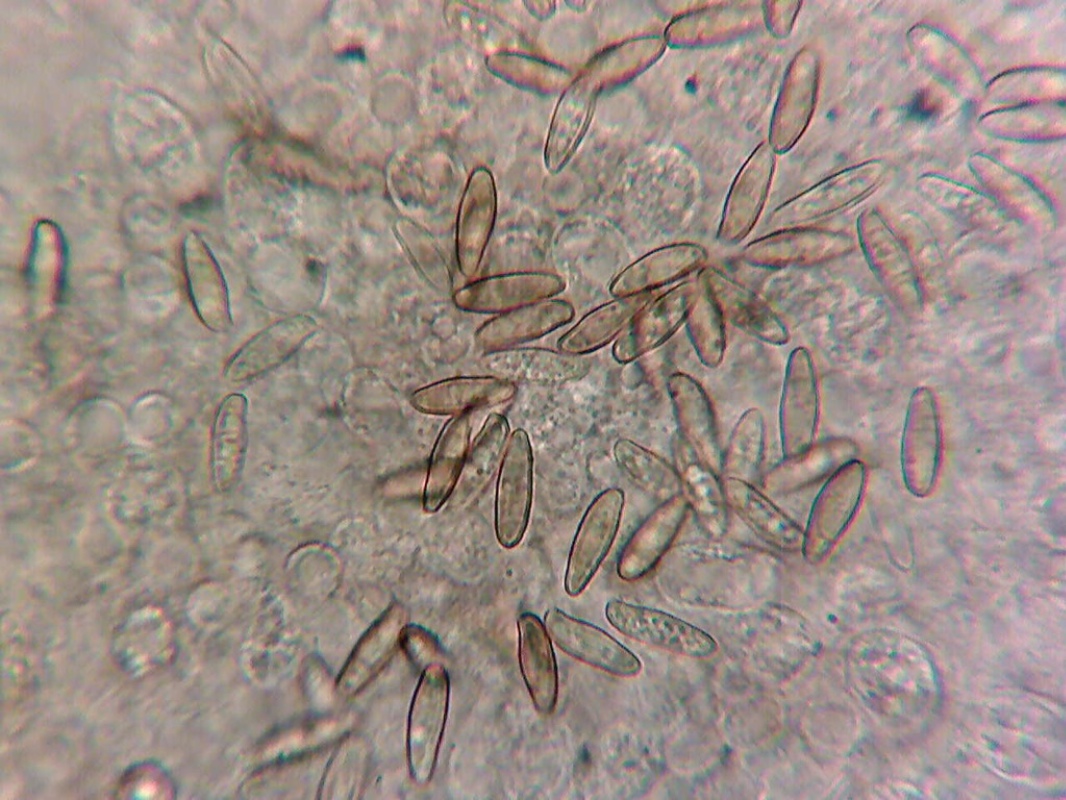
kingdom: Fungi
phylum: Basidiomycota
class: Agaricomycetes
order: Boletales
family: Boletaceae
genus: Xerocomus
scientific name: Xerocomus ferrugineus
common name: vaskeskinds-rørhat
